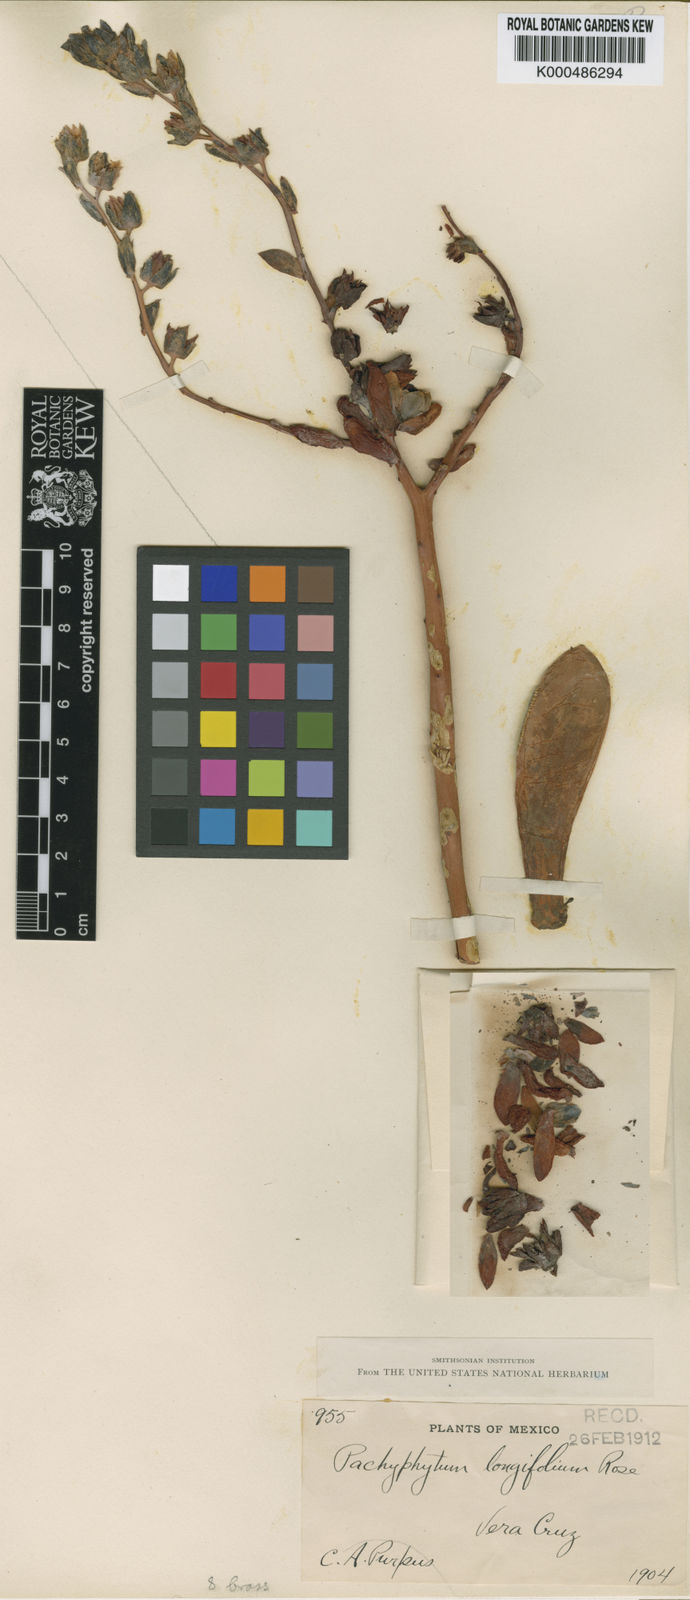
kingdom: Plantae
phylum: Tracheophyta
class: Magnoliopsida
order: Saxifragales
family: Crassulaceae
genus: Pachyphytum
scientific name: Pachyphytum longifolium
